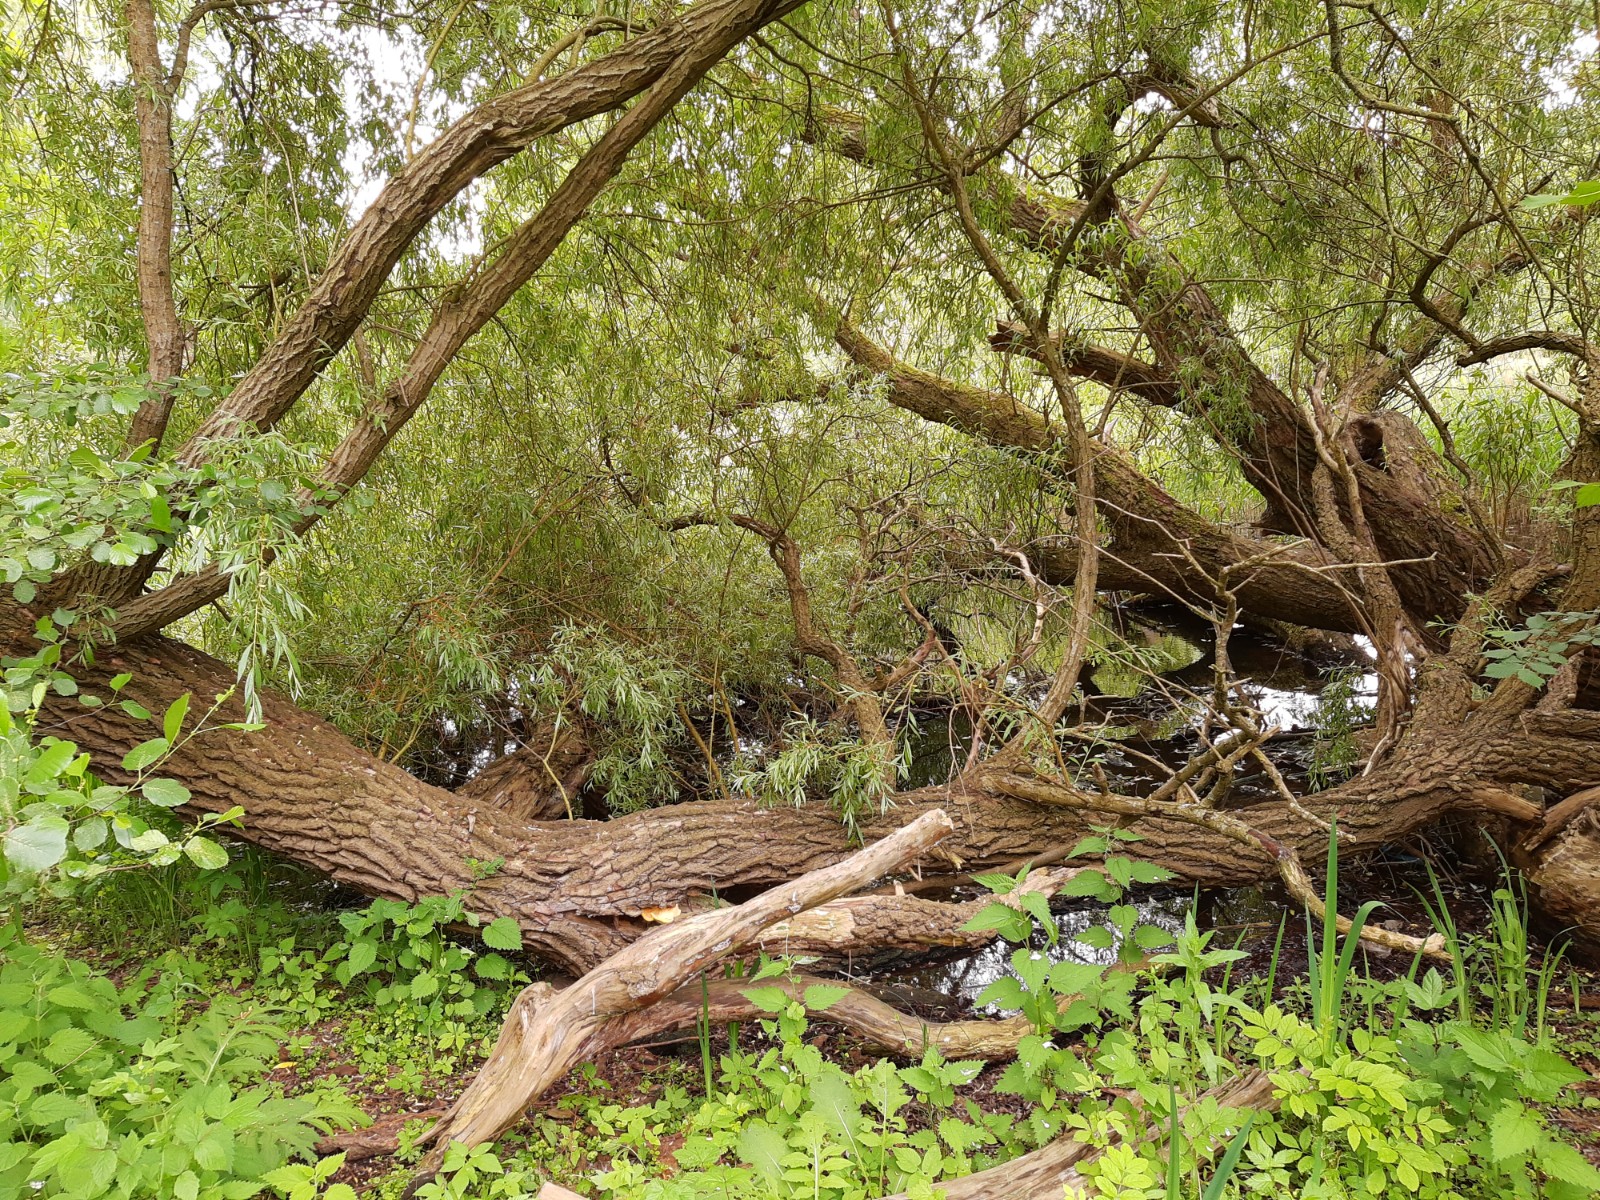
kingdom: Fungi
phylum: Basidiomycota
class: Agaricomycetes
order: Polyporales
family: Laetiporaceae
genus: Laetiporus
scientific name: Laetiporus sulphureus
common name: svovlporesvamp
